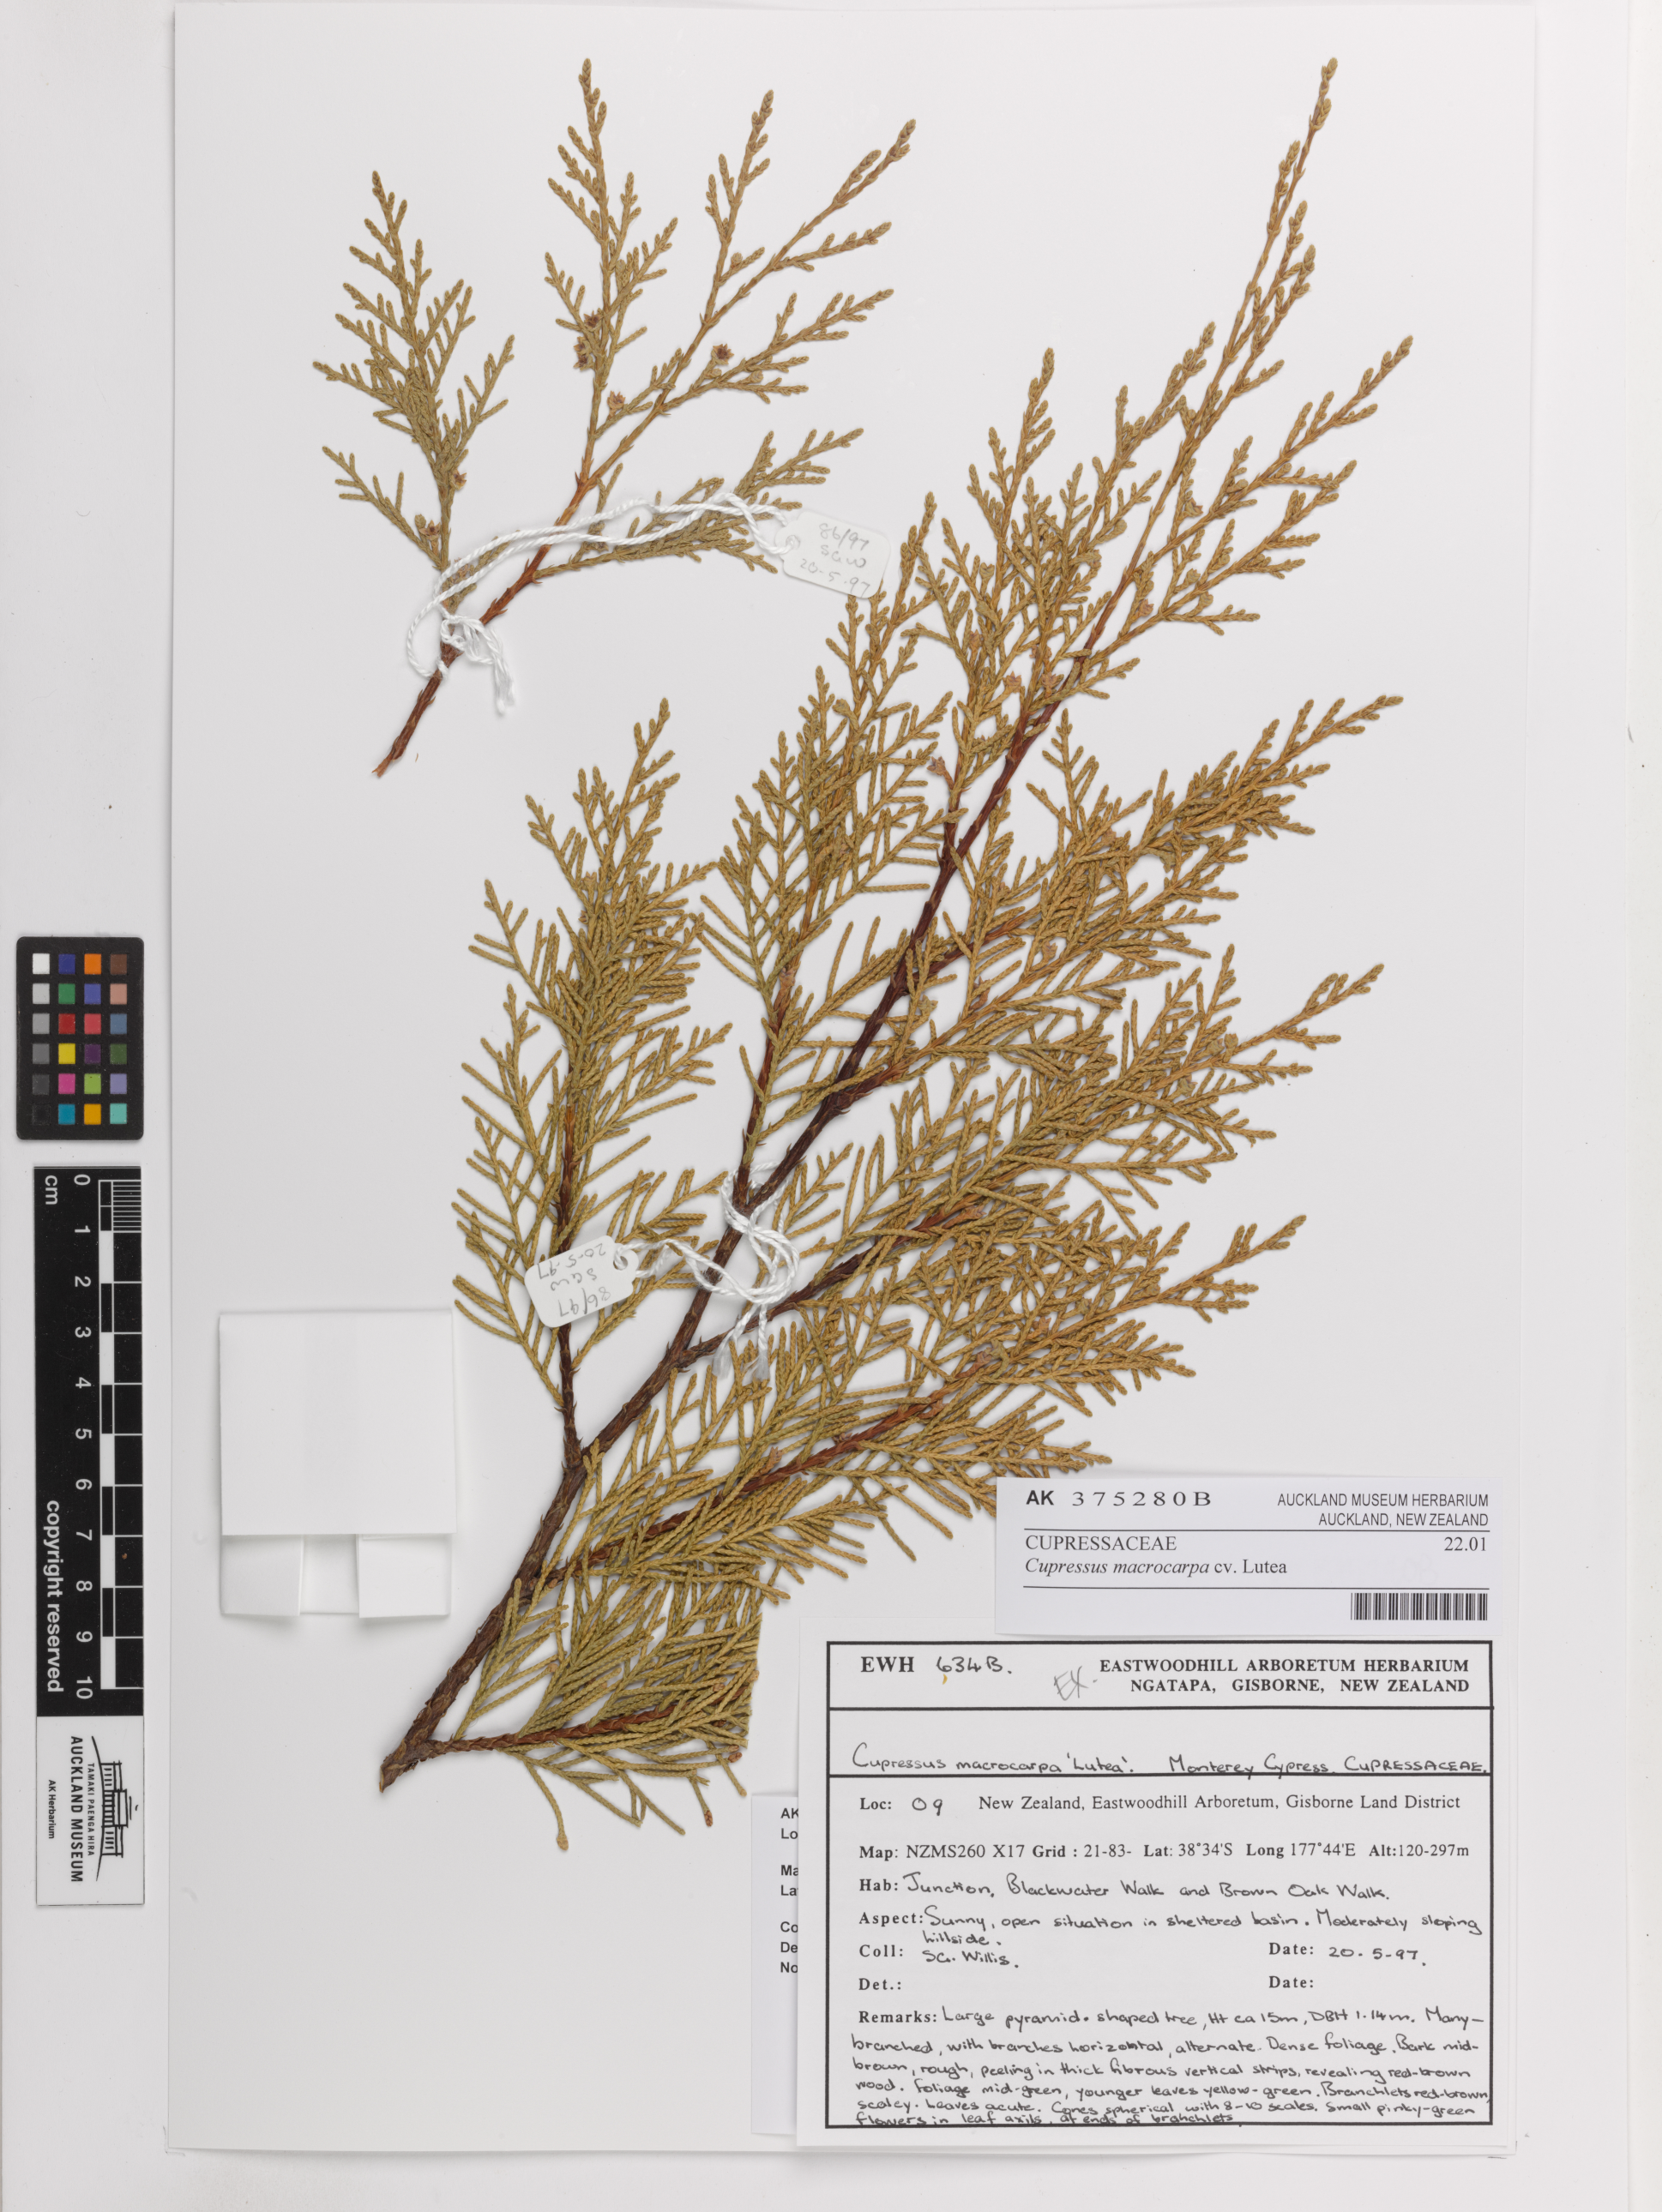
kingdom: Plantae
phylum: Tracheophyta
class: Pinopsida
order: Pinales
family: Cupressaceae
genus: Cupressus
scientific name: Cupressus macrocarpa
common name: Monterey cypress
